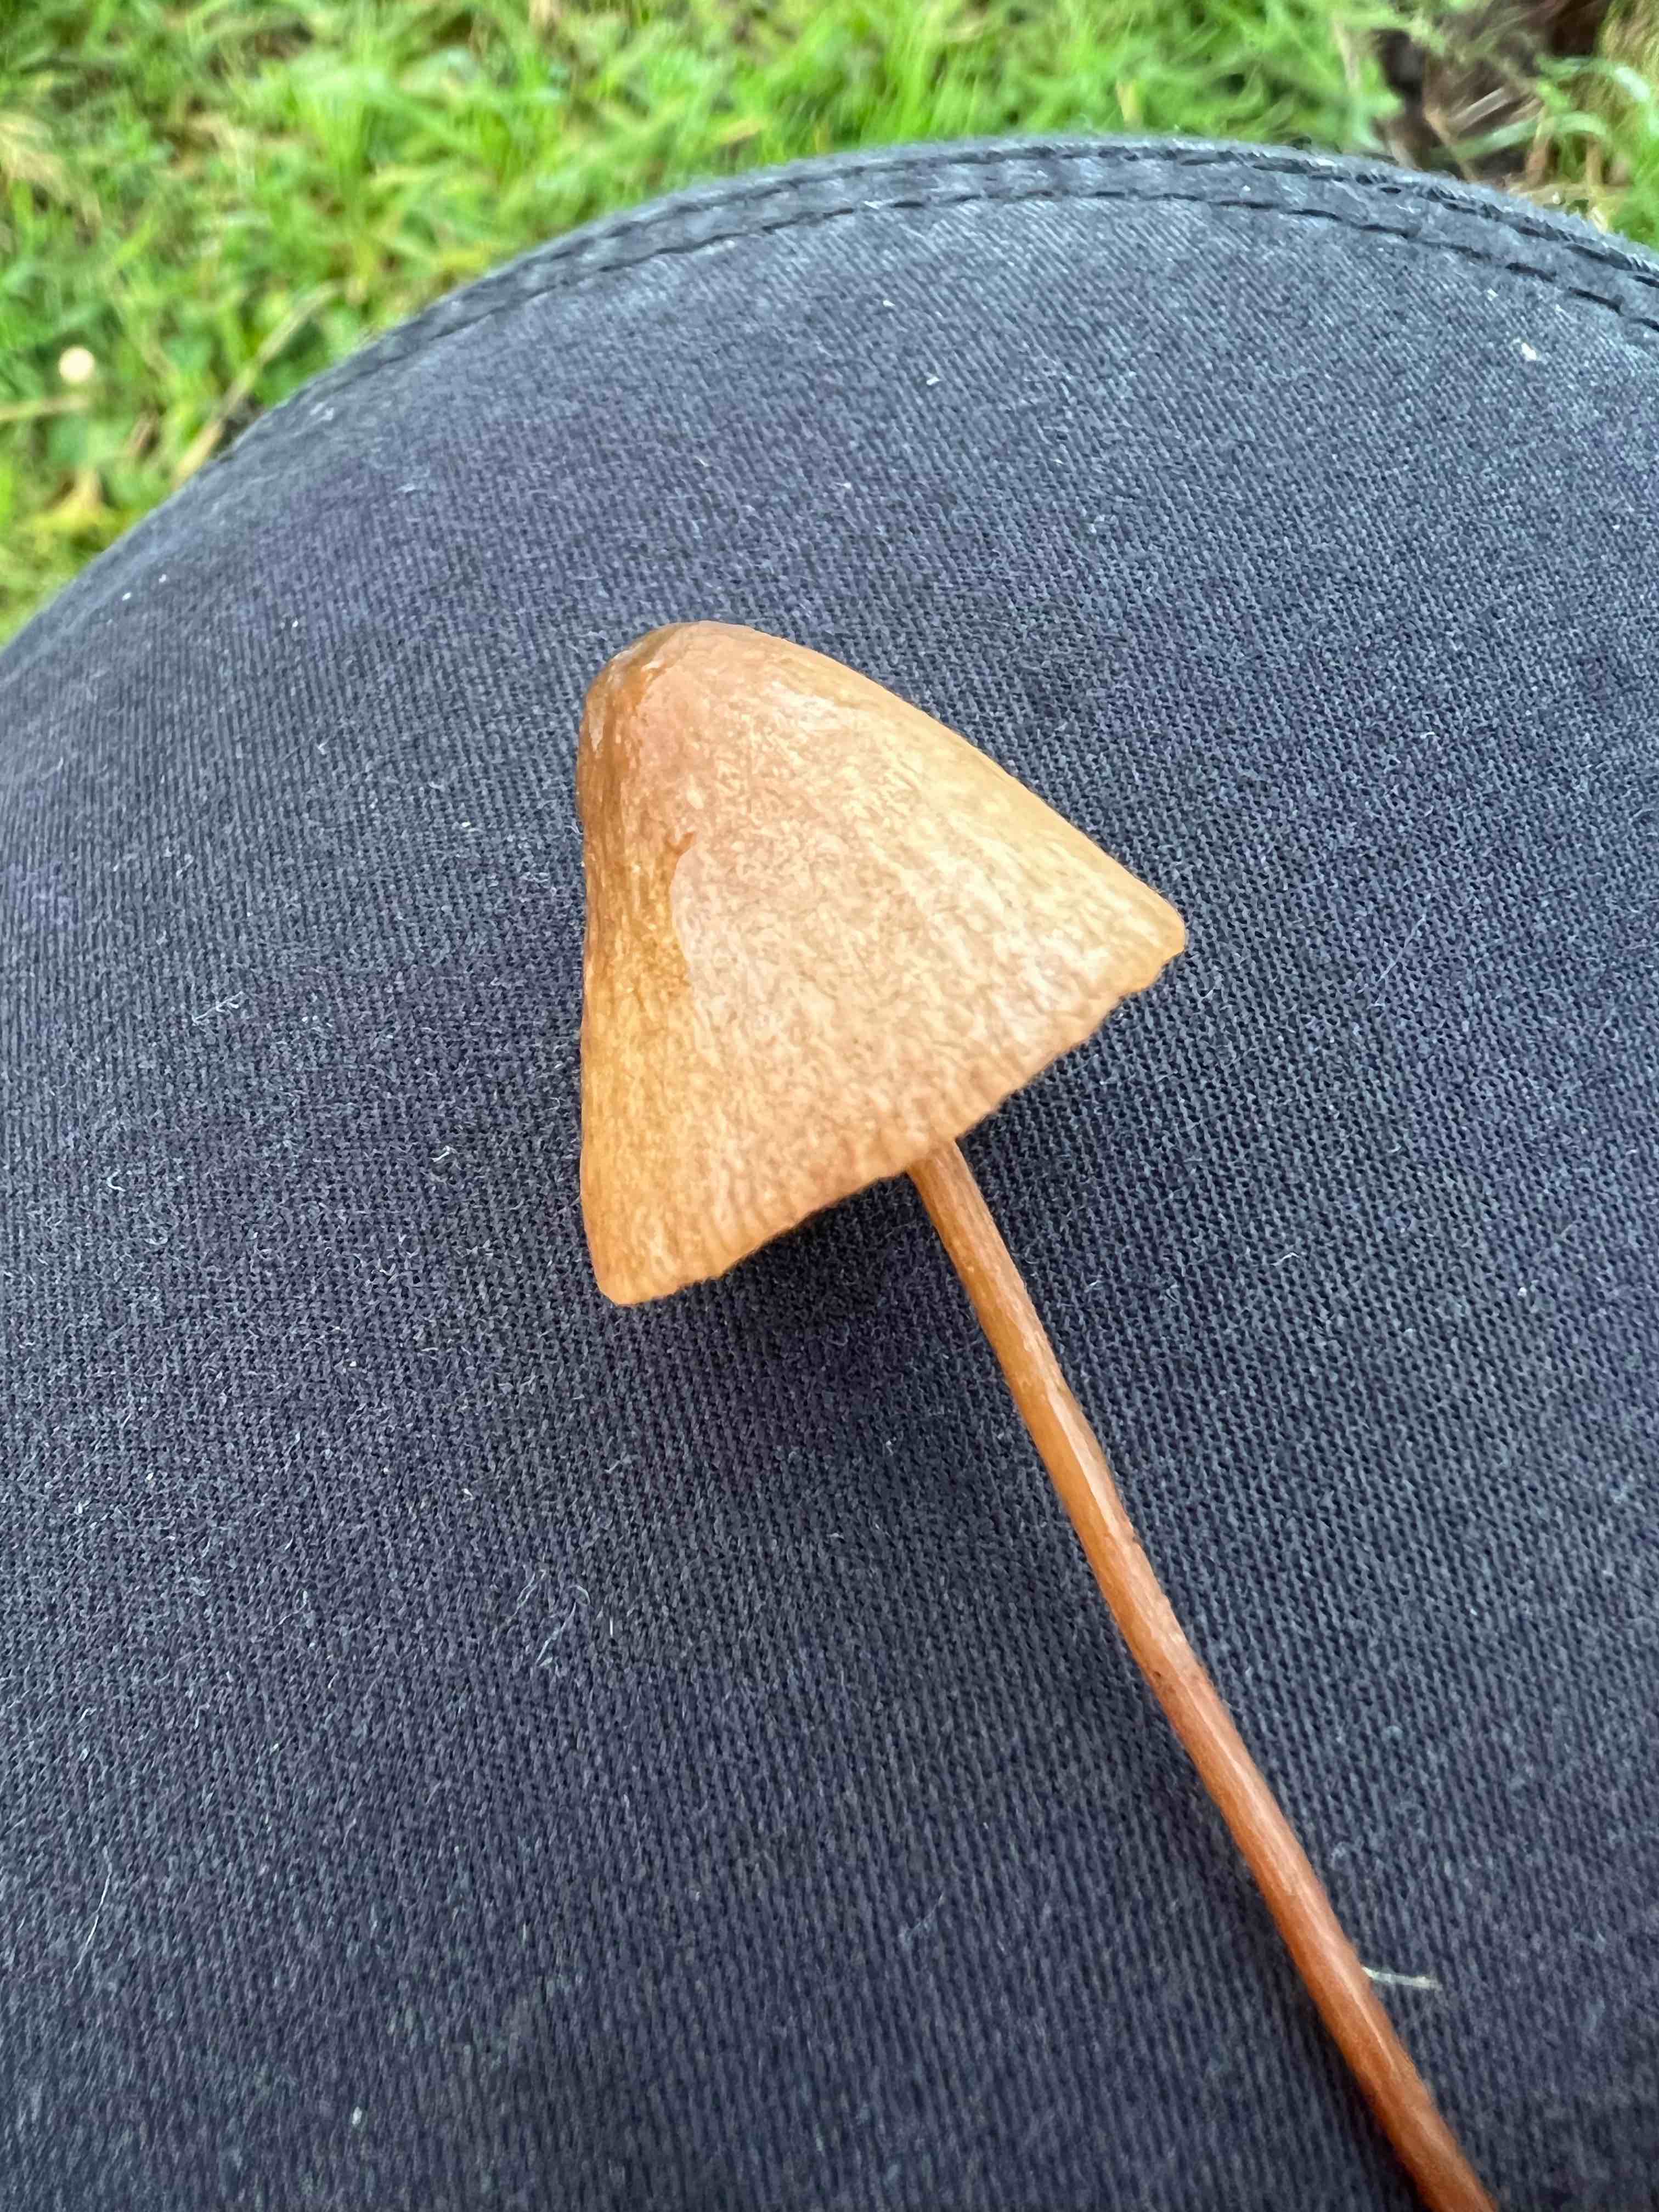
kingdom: Fungi
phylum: Basidiomycota
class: Agaricomycetes
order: Agaricales
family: Bolbitiaceae
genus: Conocybe
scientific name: Conocybe
